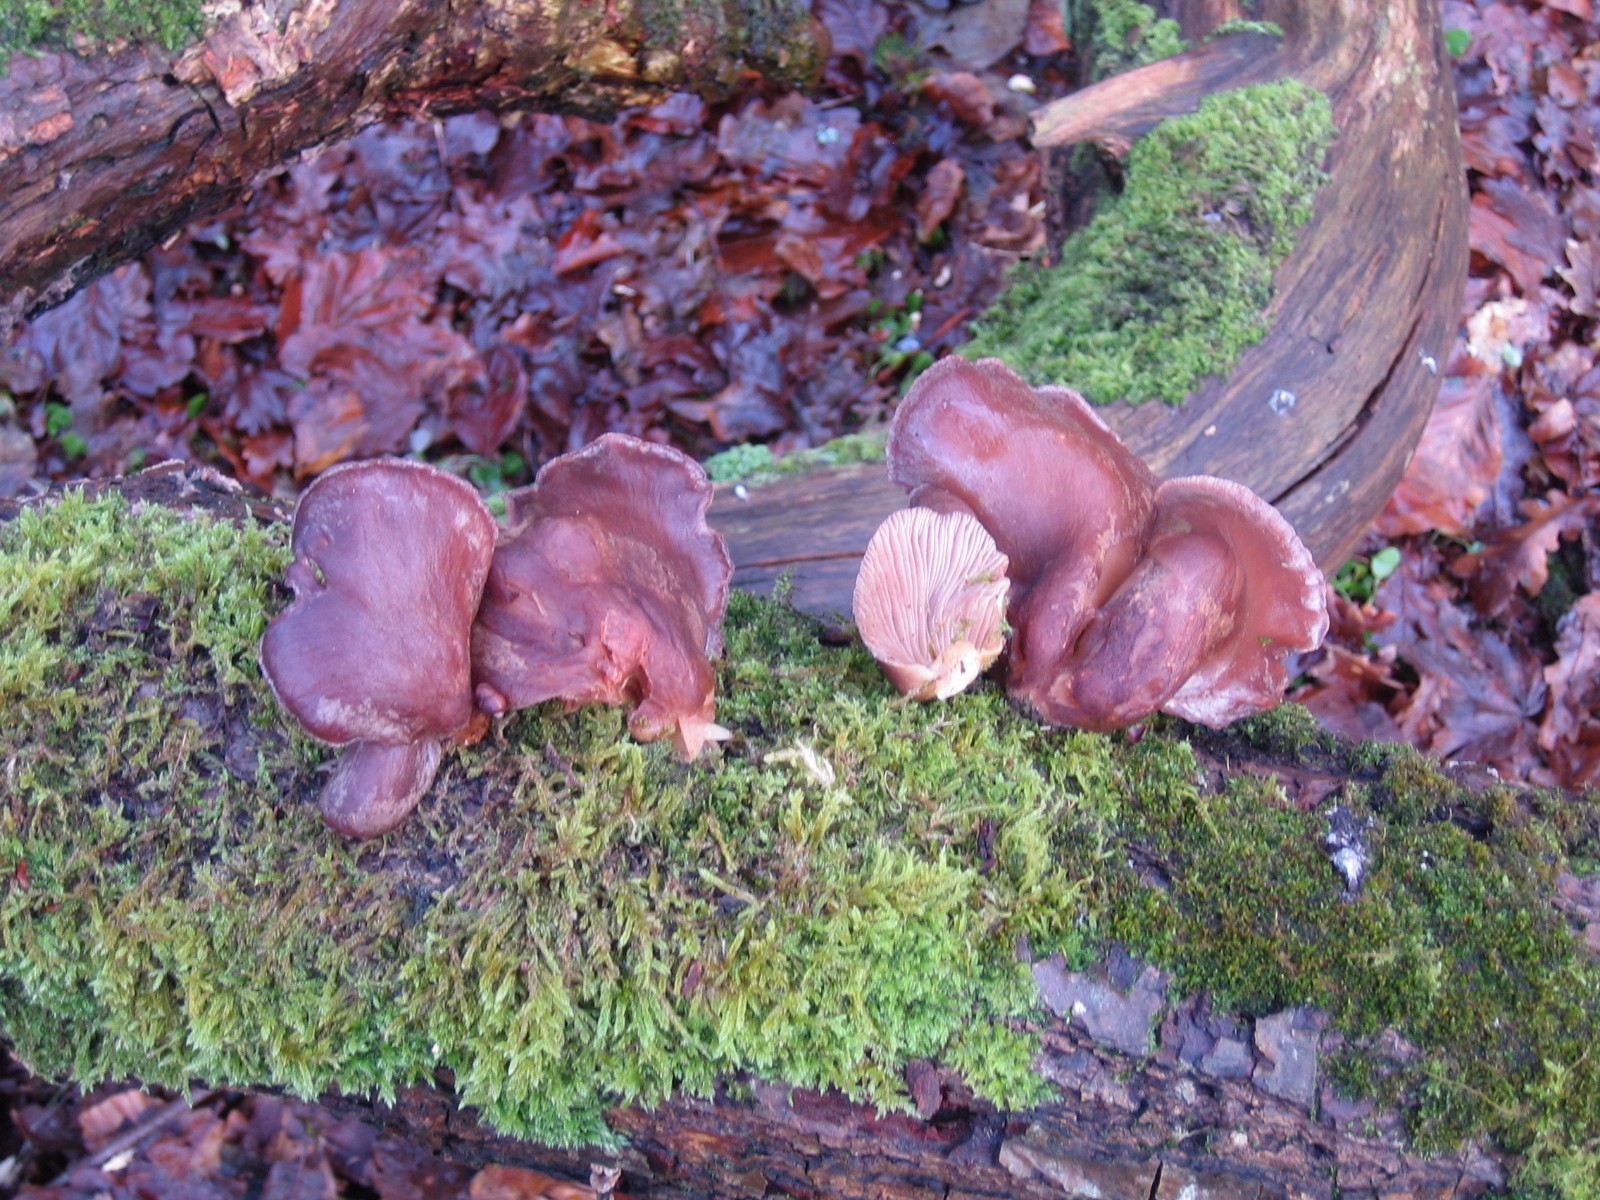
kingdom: Fungi
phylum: Basidiomycota
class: Agaricomycetes
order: Agaricales
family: Sarcomyxaceae
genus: Sarcomyxa
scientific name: Sarcomyxa serotina
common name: gummihat
